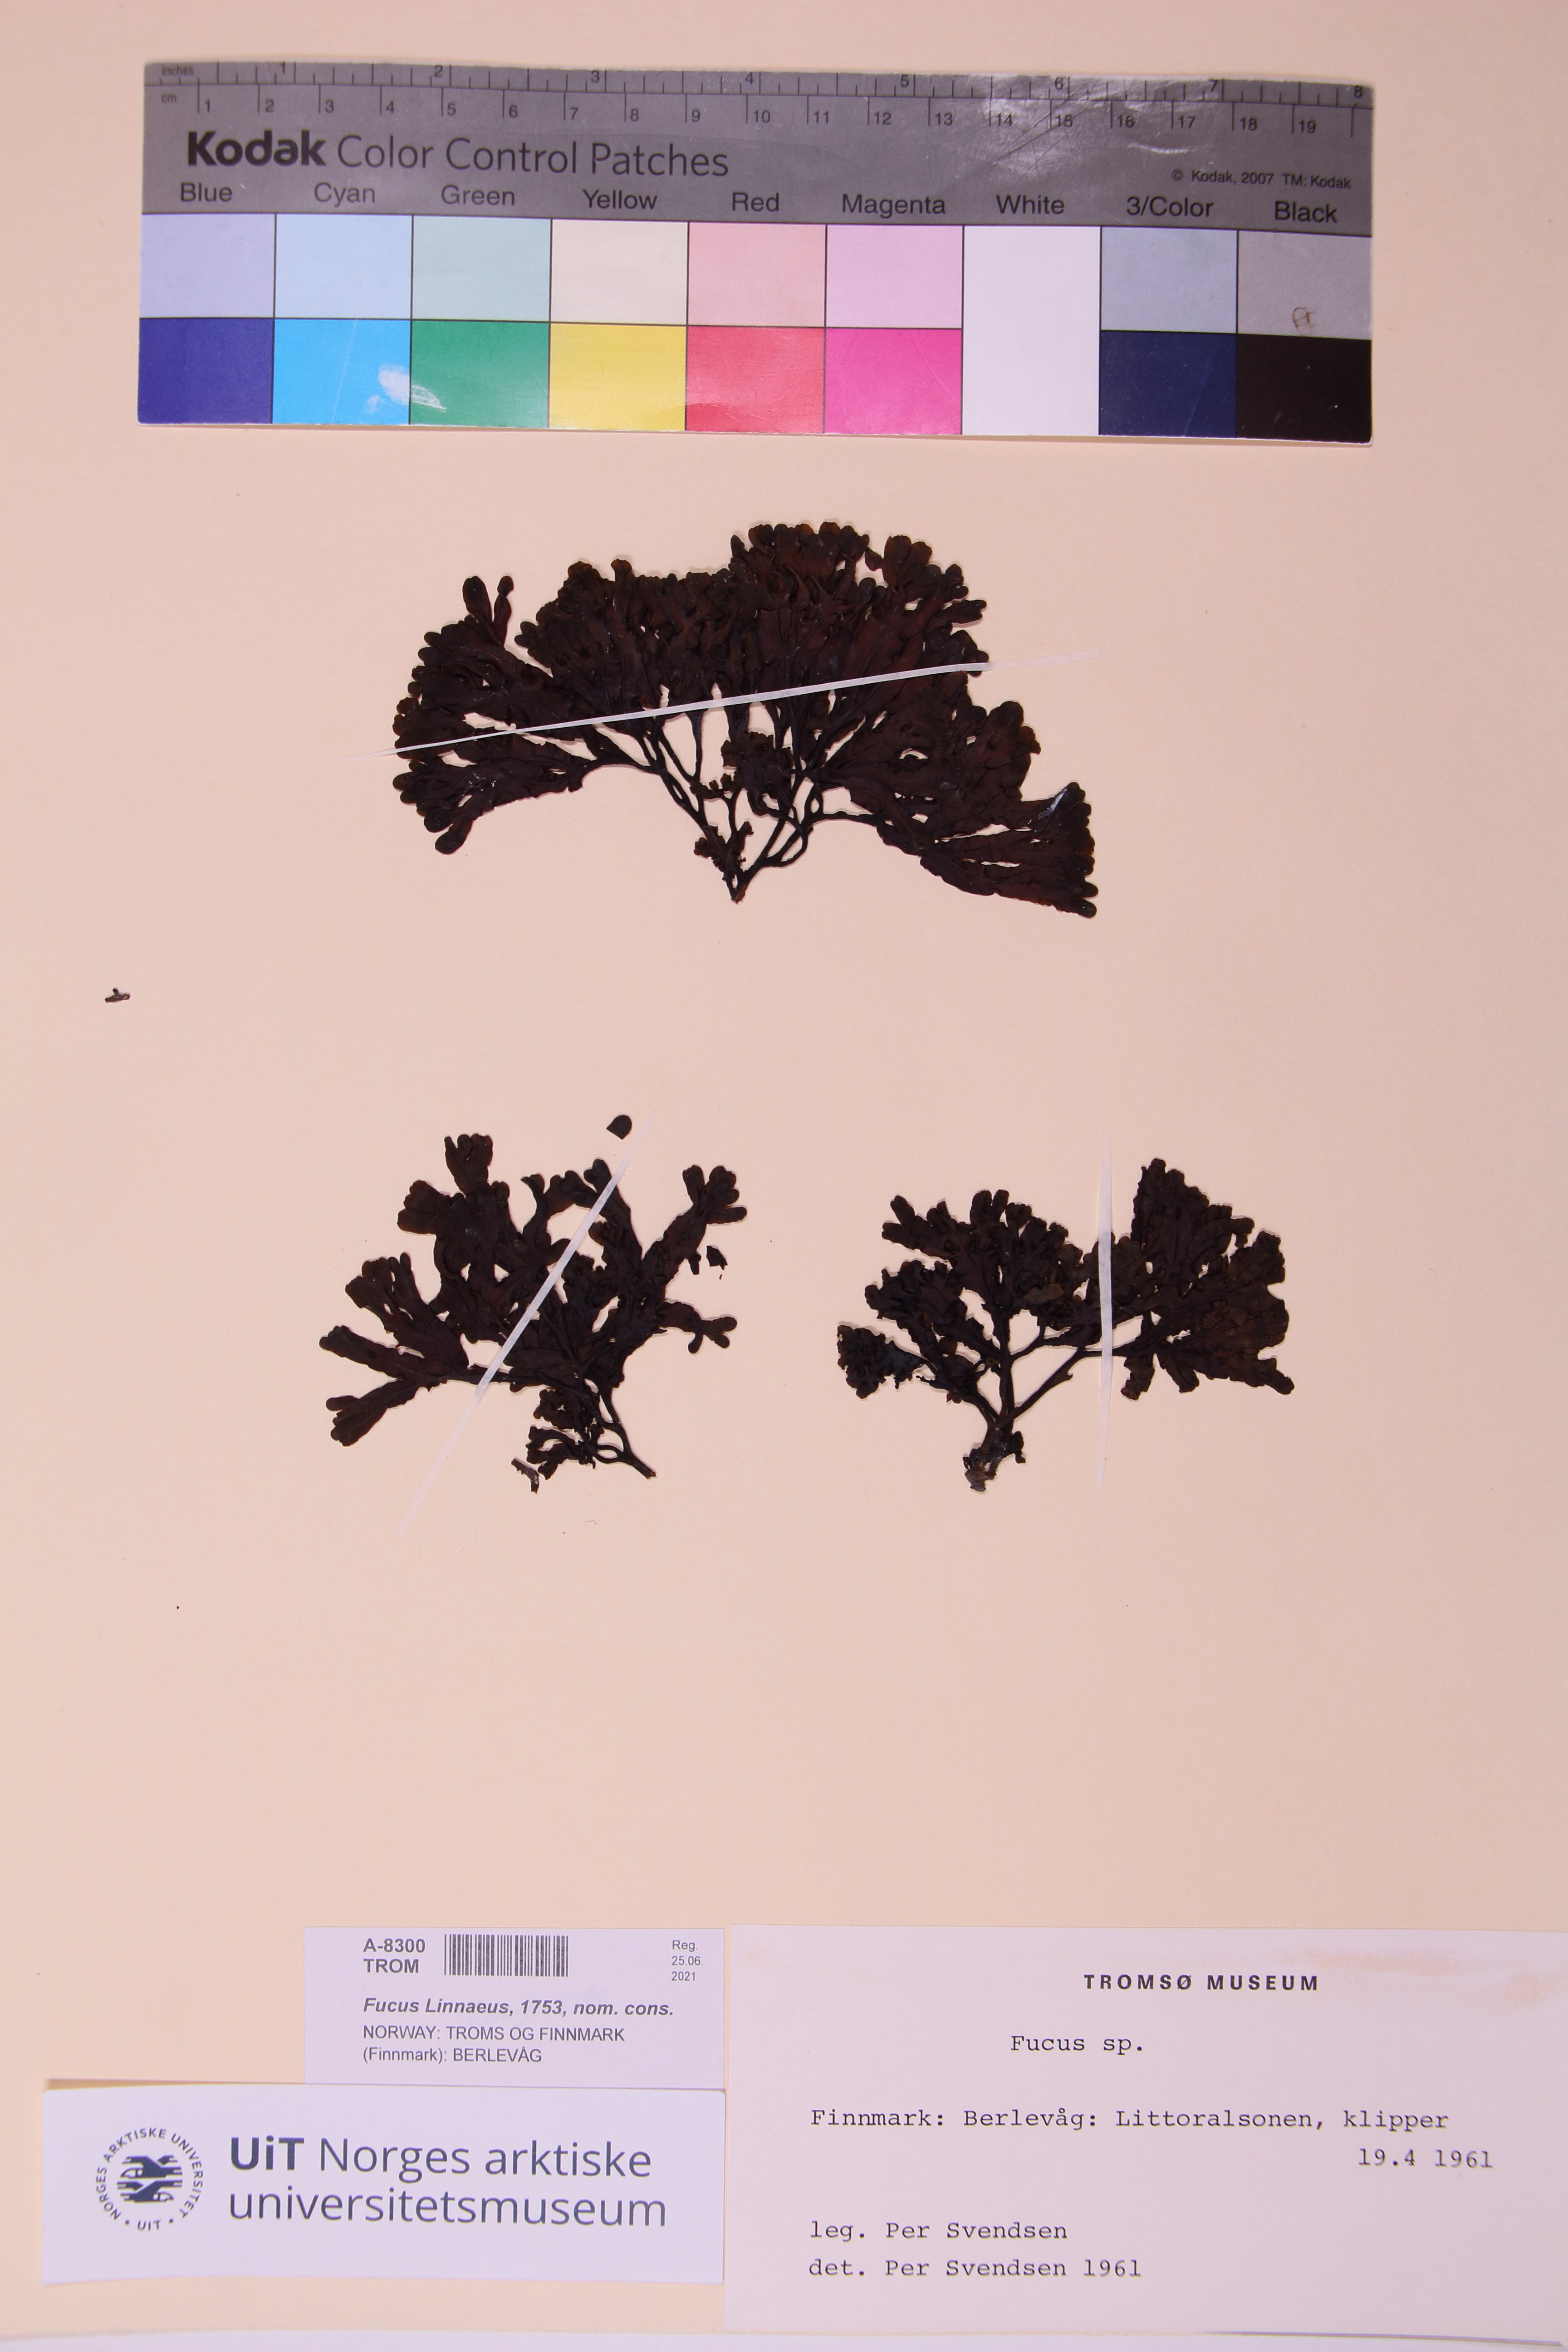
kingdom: Chromista
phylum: Ochrophyta
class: Phaeophyceae
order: Fucales
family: Fucaceae
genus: Fucus
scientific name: Fucus spiralis
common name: Spiral wrack
